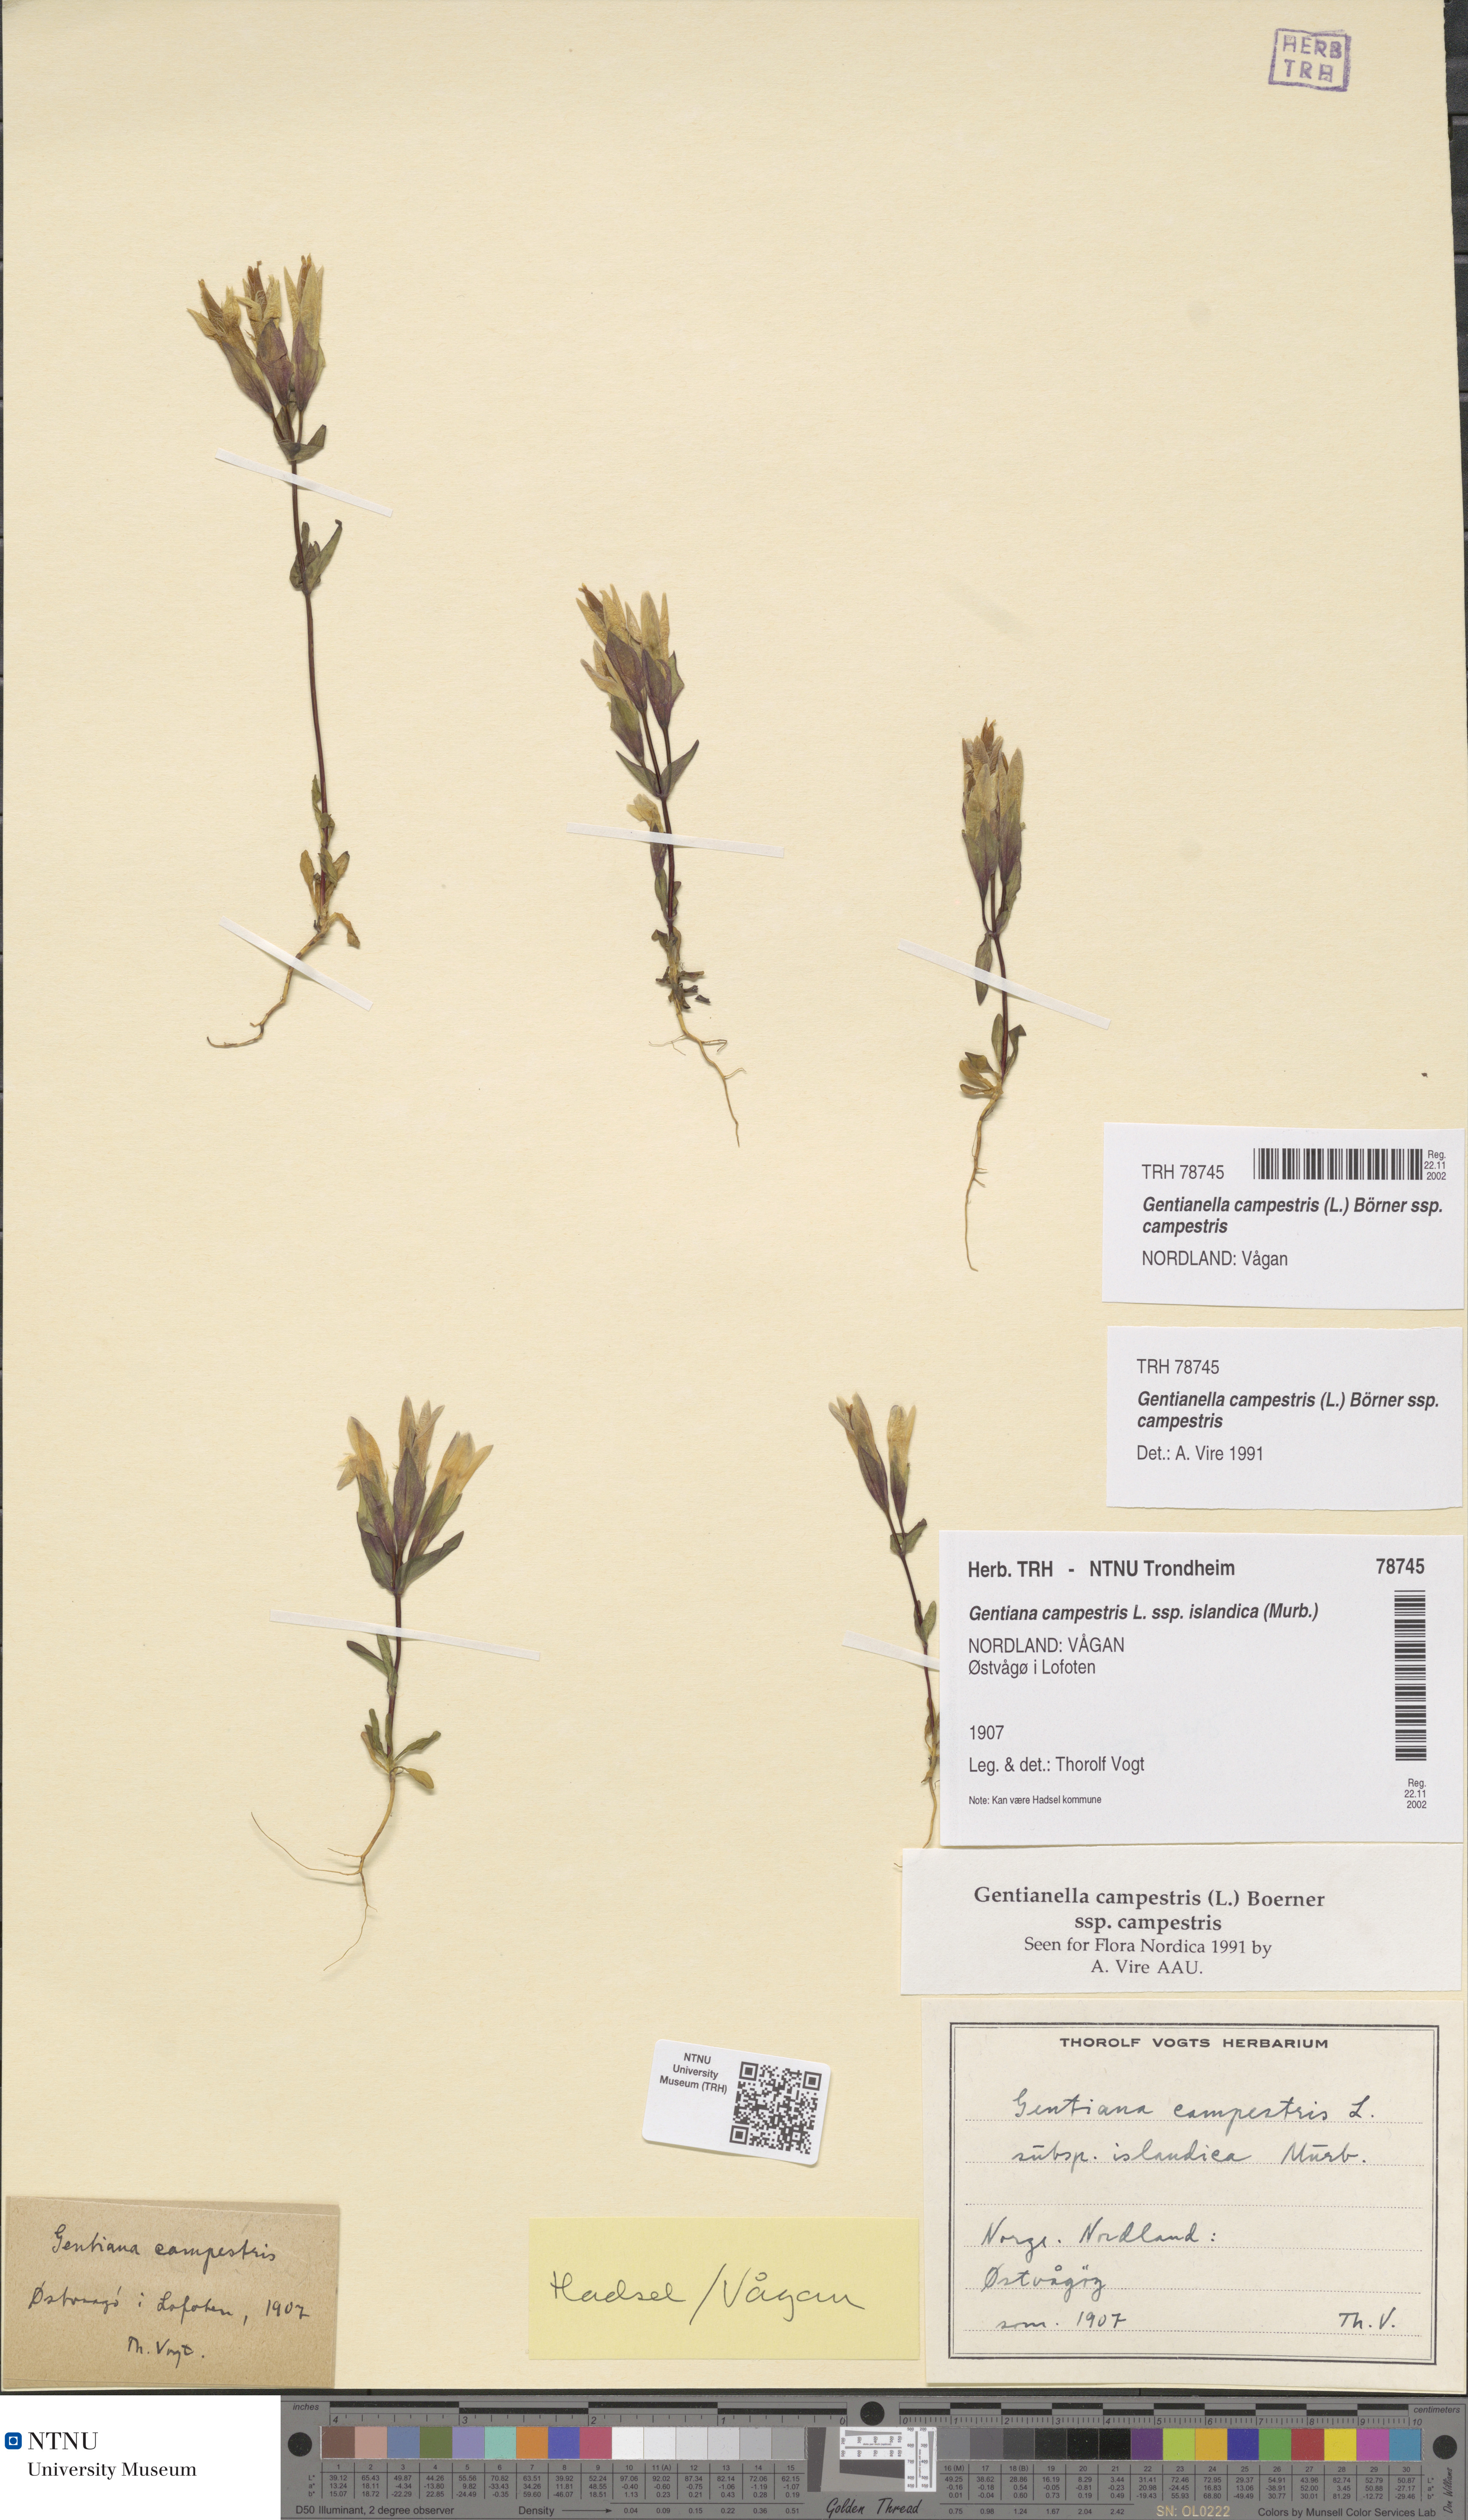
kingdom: Plantae
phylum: Tracheophyta
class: Magnoliopsida
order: Gentianales
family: Gentianaceae
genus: Gentianella
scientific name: Gentianella campestris
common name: Field gentian
